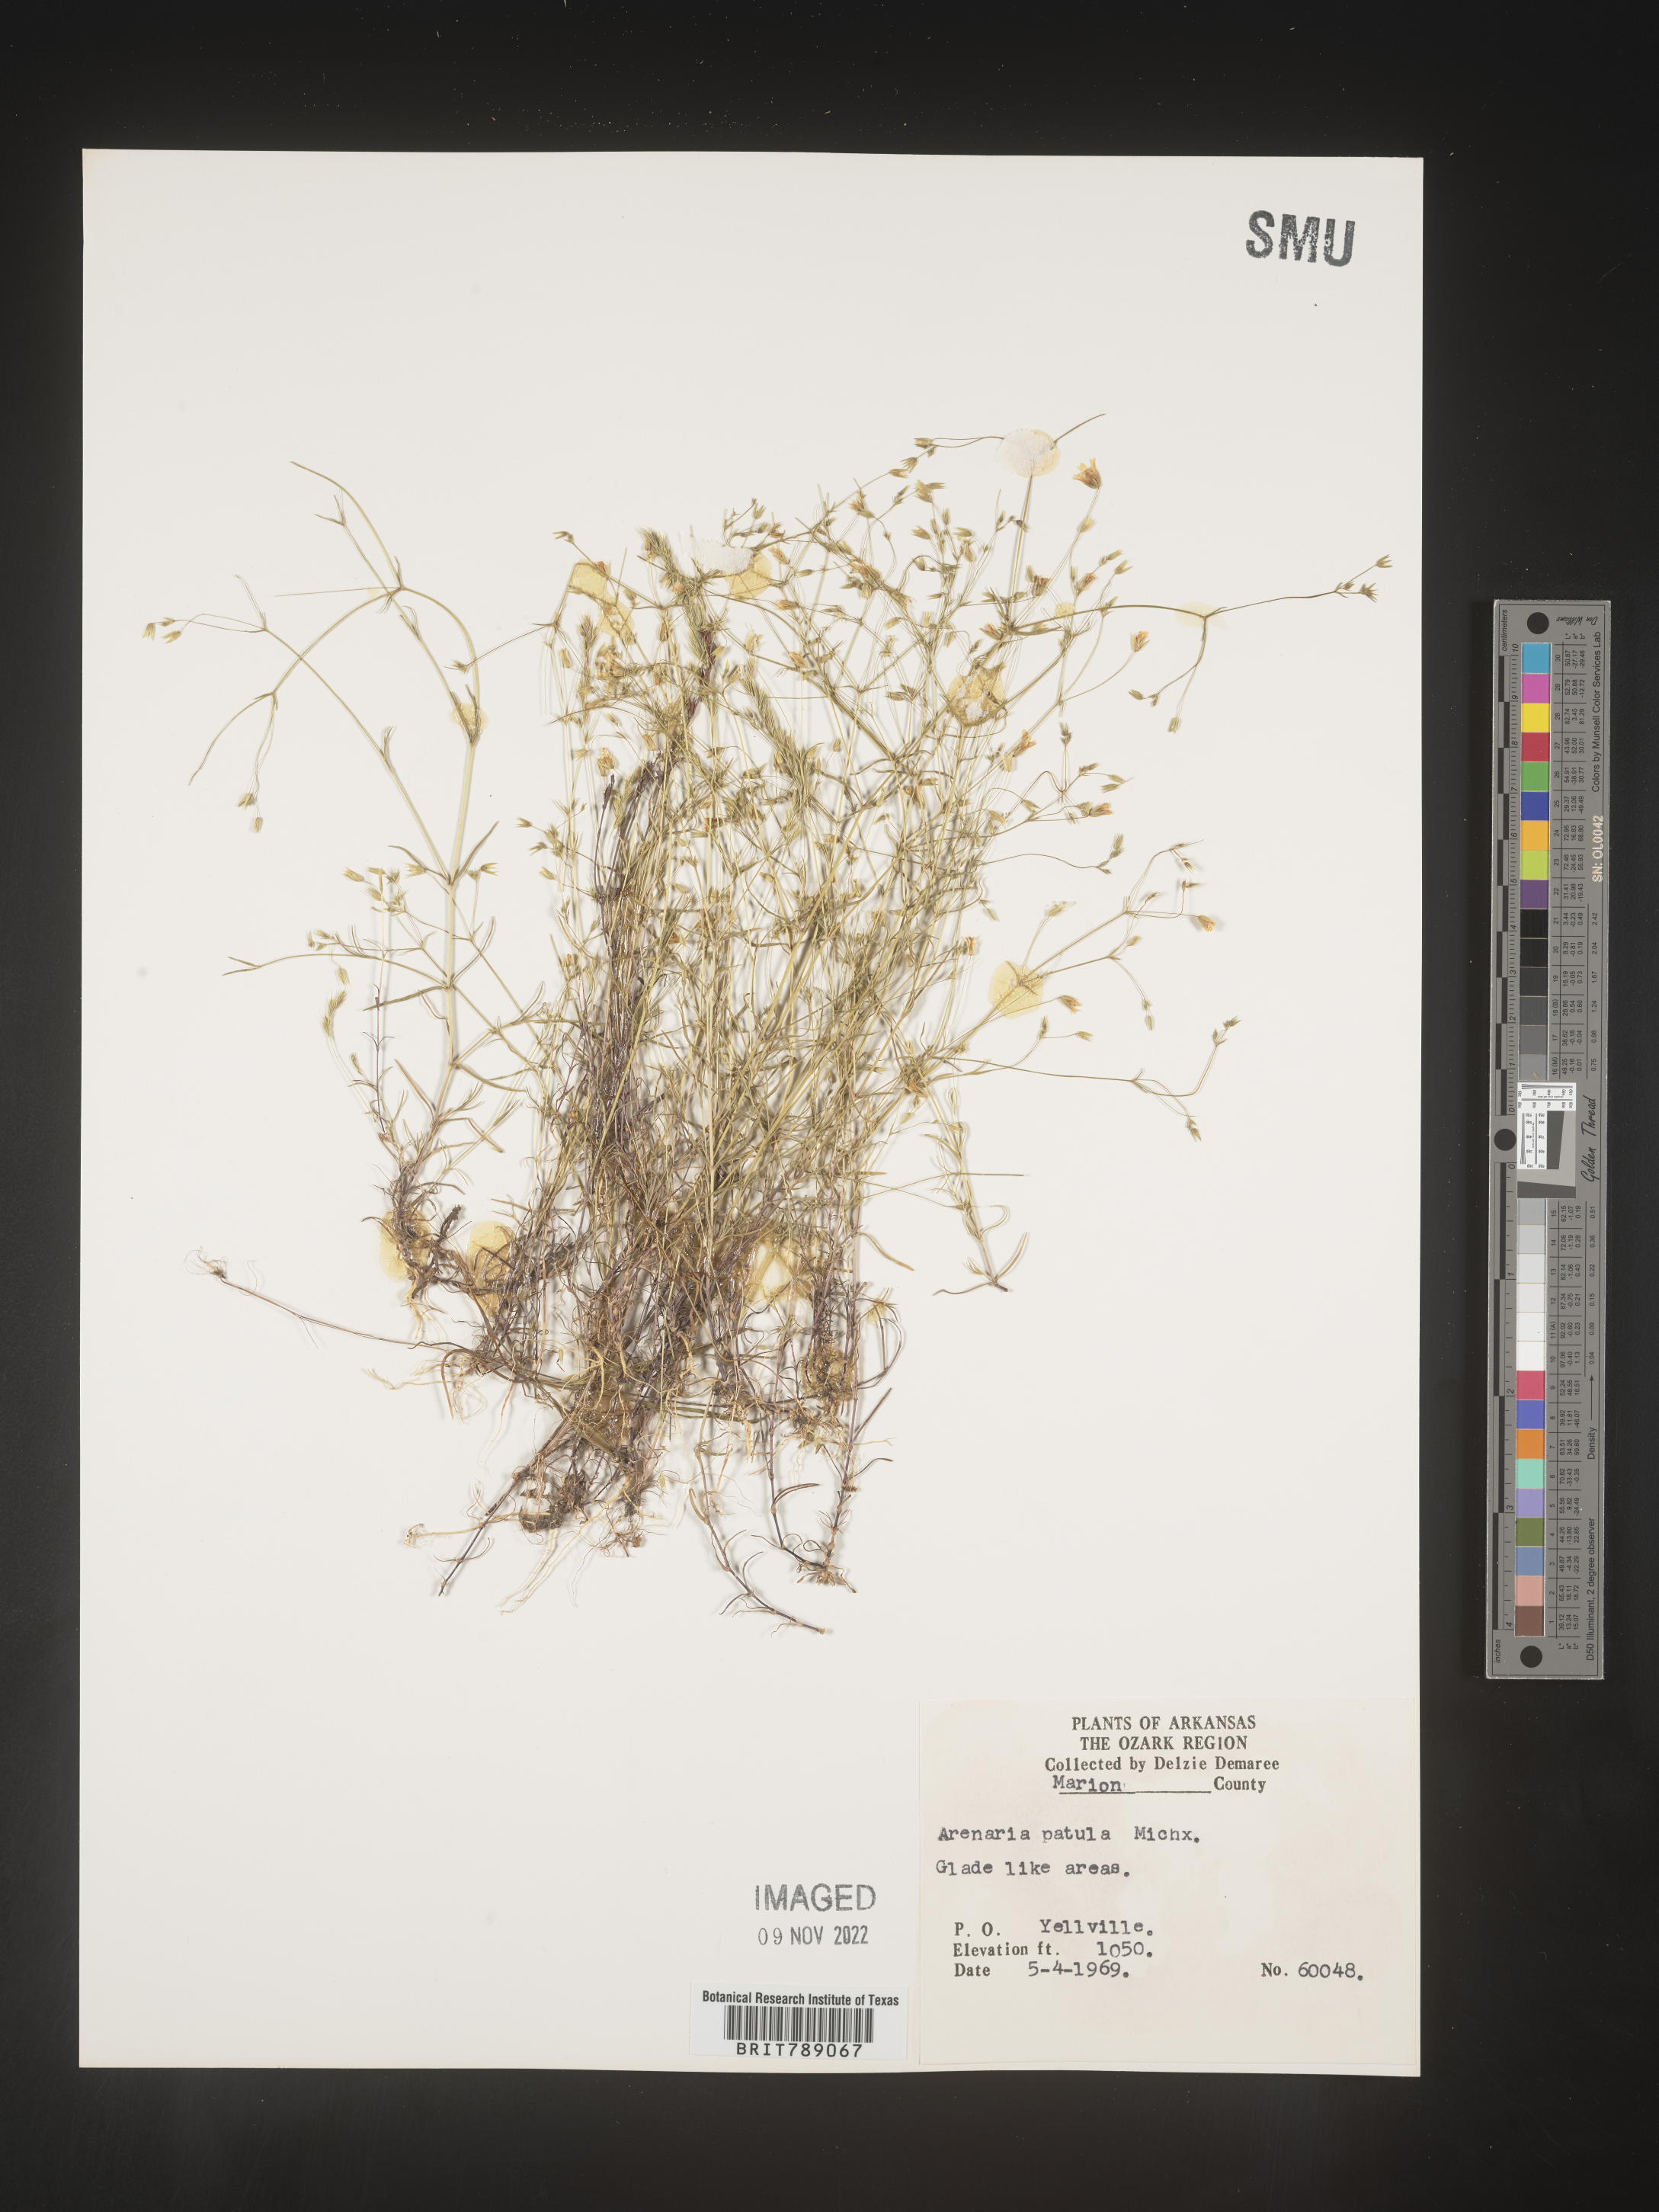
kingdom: Plantae
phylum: Tracheophyta
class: Magnoliopsida
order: Caryophyllales
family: Caryophyllaceae
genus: Mononeuria
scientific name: Mononeuria patula
